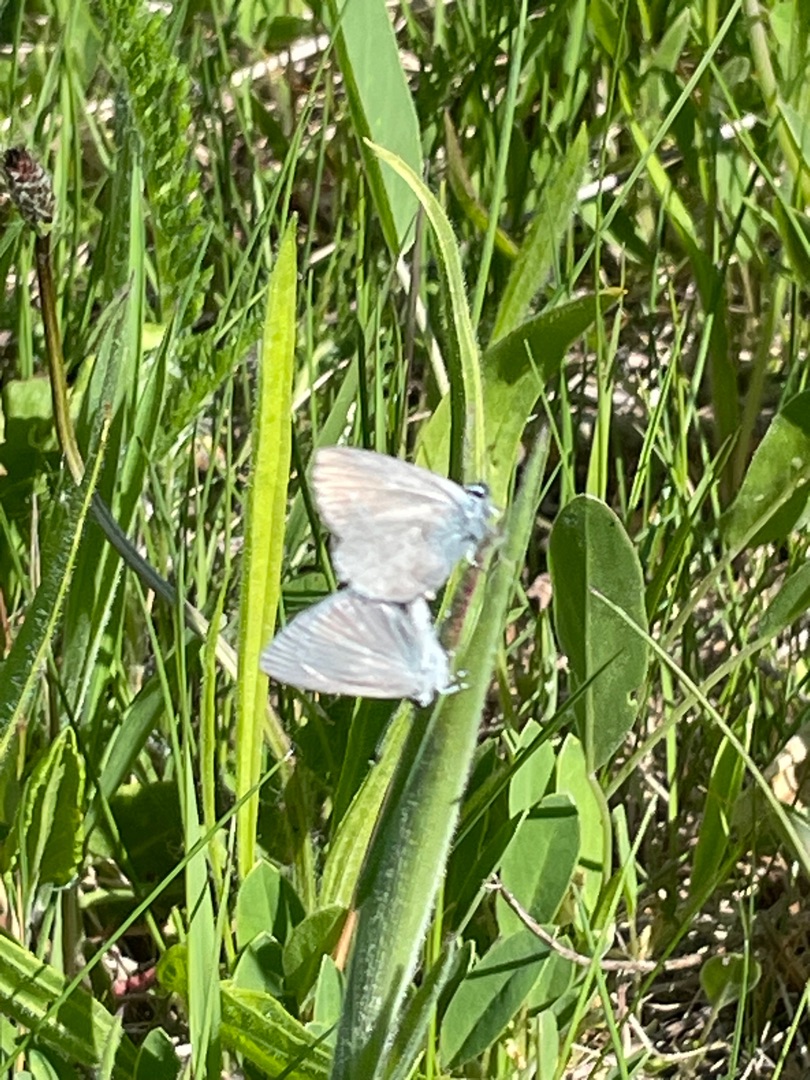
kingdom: Animalia
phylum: Arthropoda
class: Insecta
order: Lepidoptera
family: Lycaenidae
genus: Cupido
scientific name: Cupido minimus
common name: Dværgblåfugl
